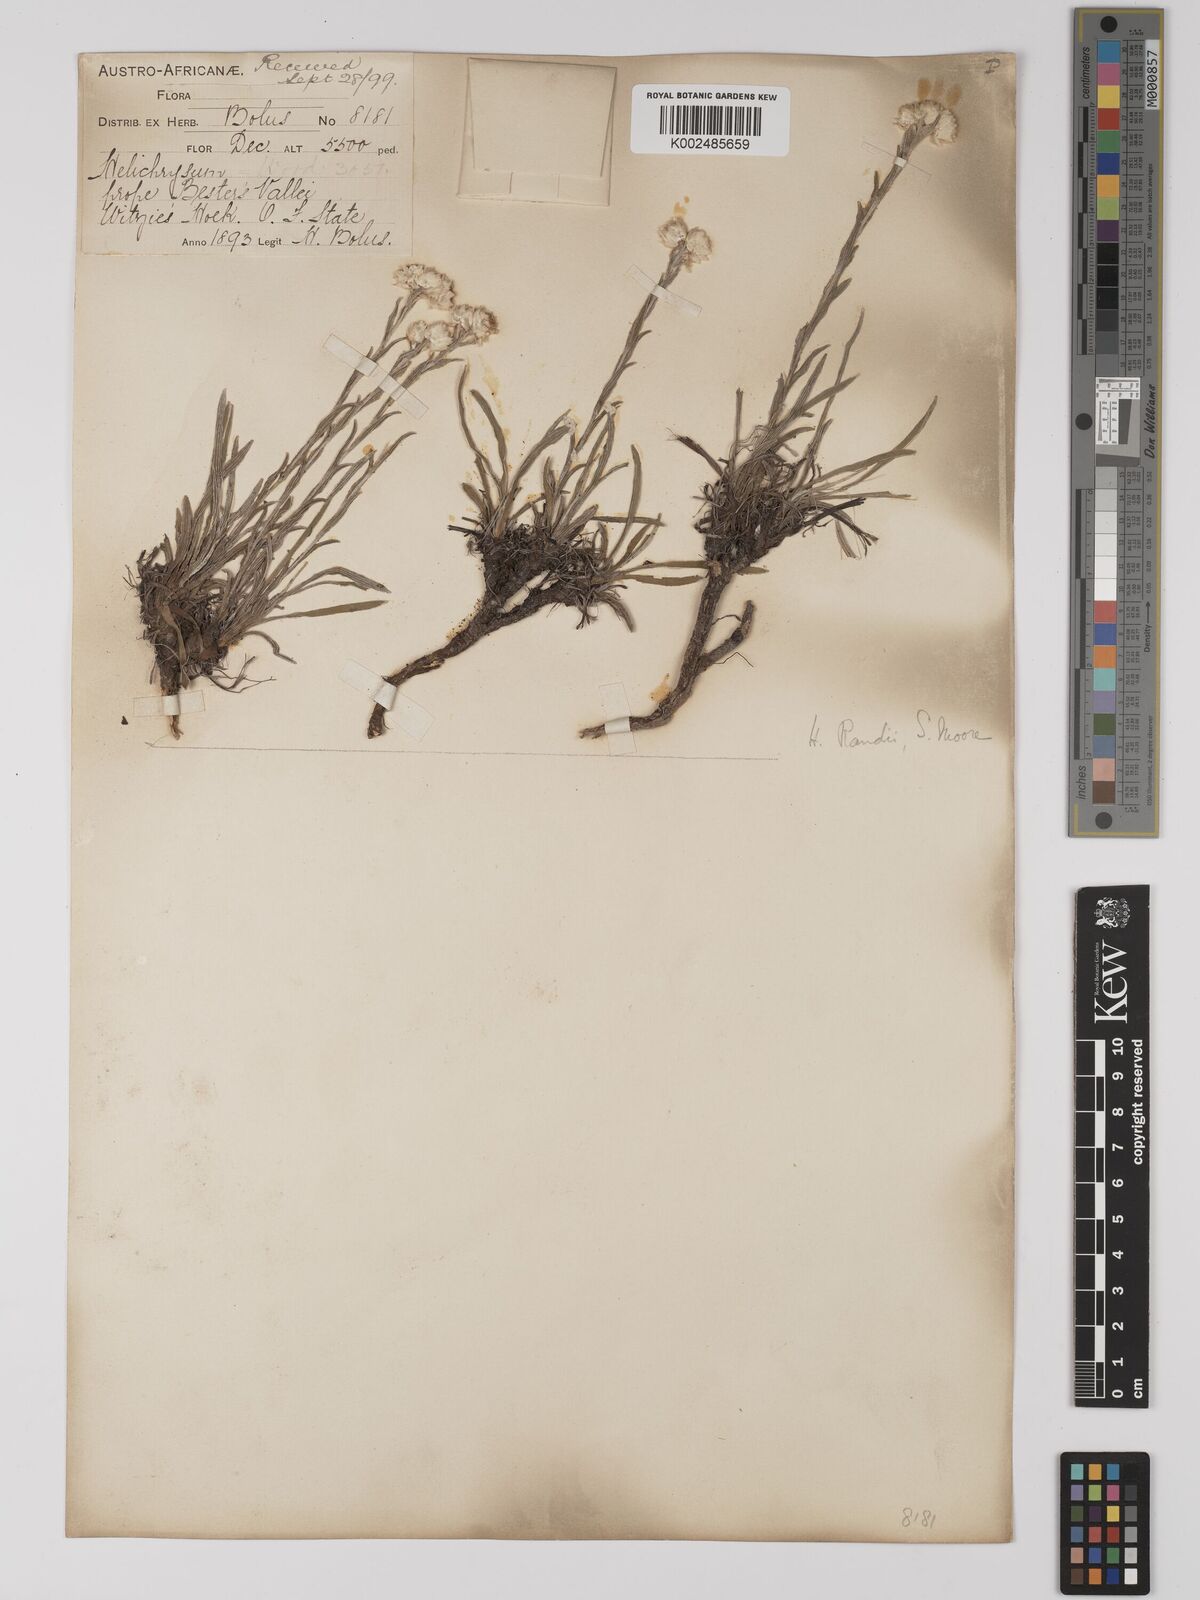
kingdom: Plantae
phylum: Tracheophyta
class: Magnoliopsida
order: Asterales
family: Asteraceae
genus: Helichrysum
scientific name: Helichrysum chionosphaerum
